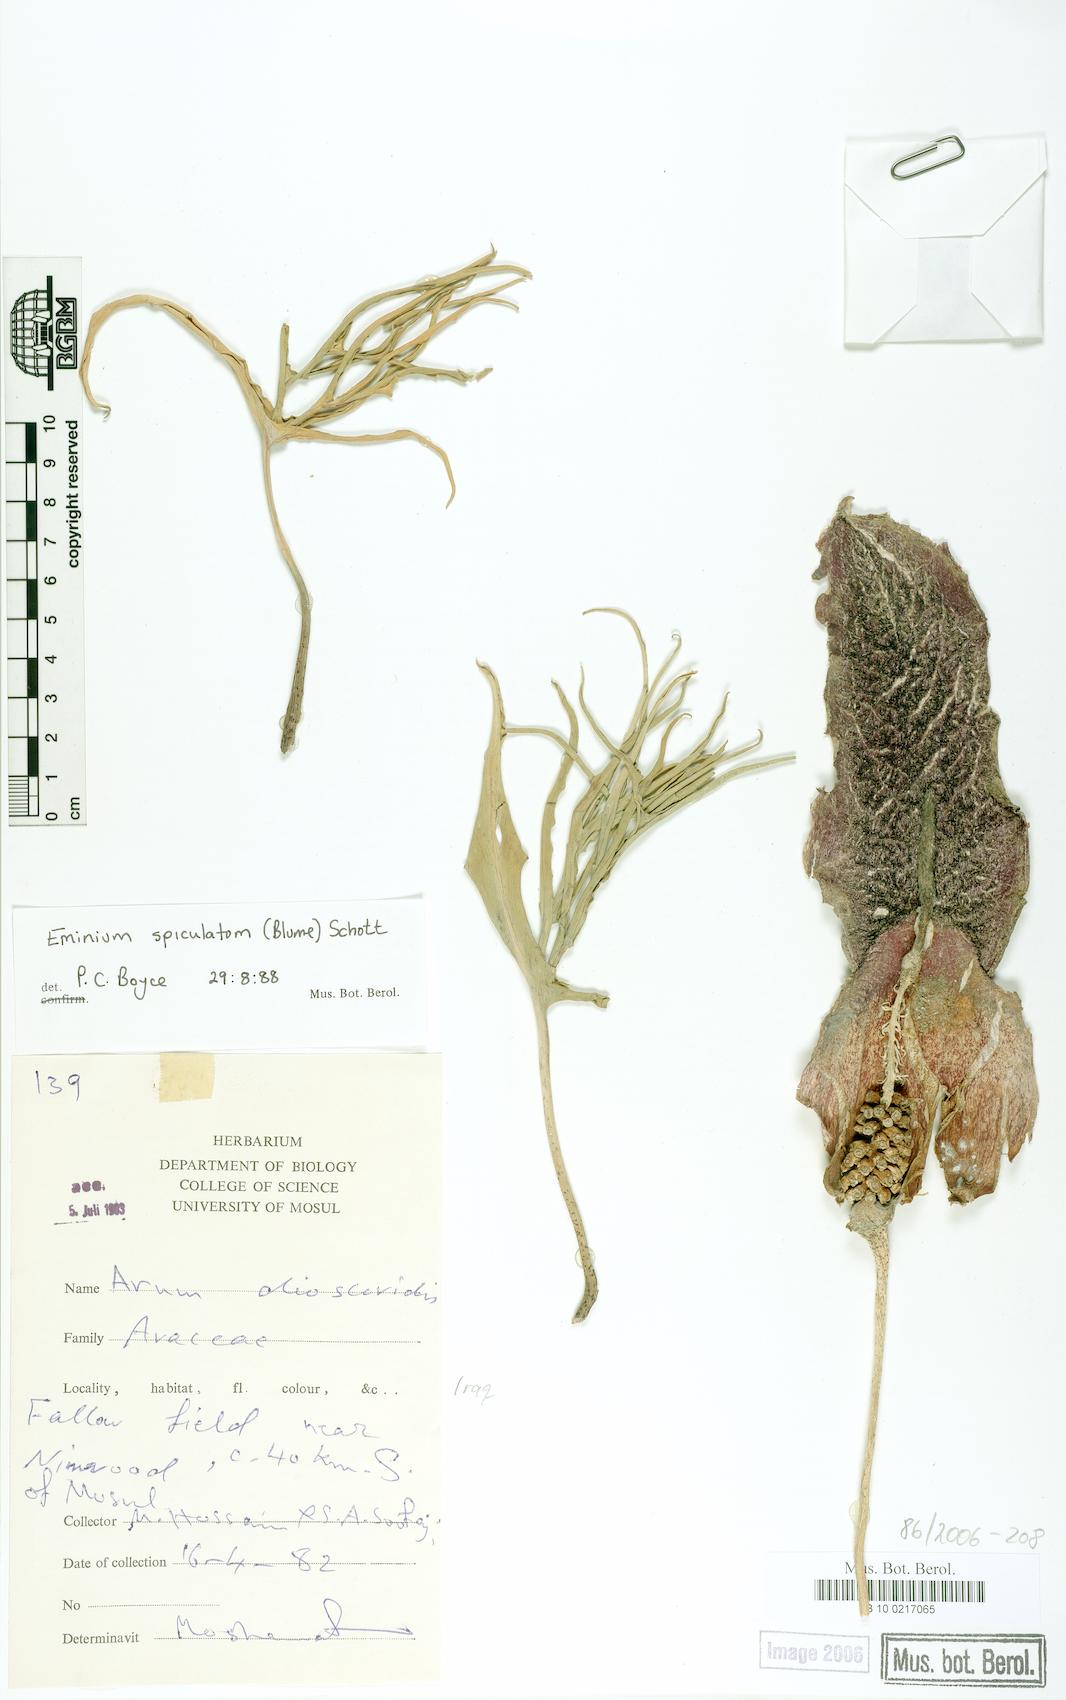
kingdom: Plantae
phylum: Tracheophyta
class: Liliopsida
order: Alismatales
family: Araceae
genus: Eminium
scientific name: Eminium spiculatum
